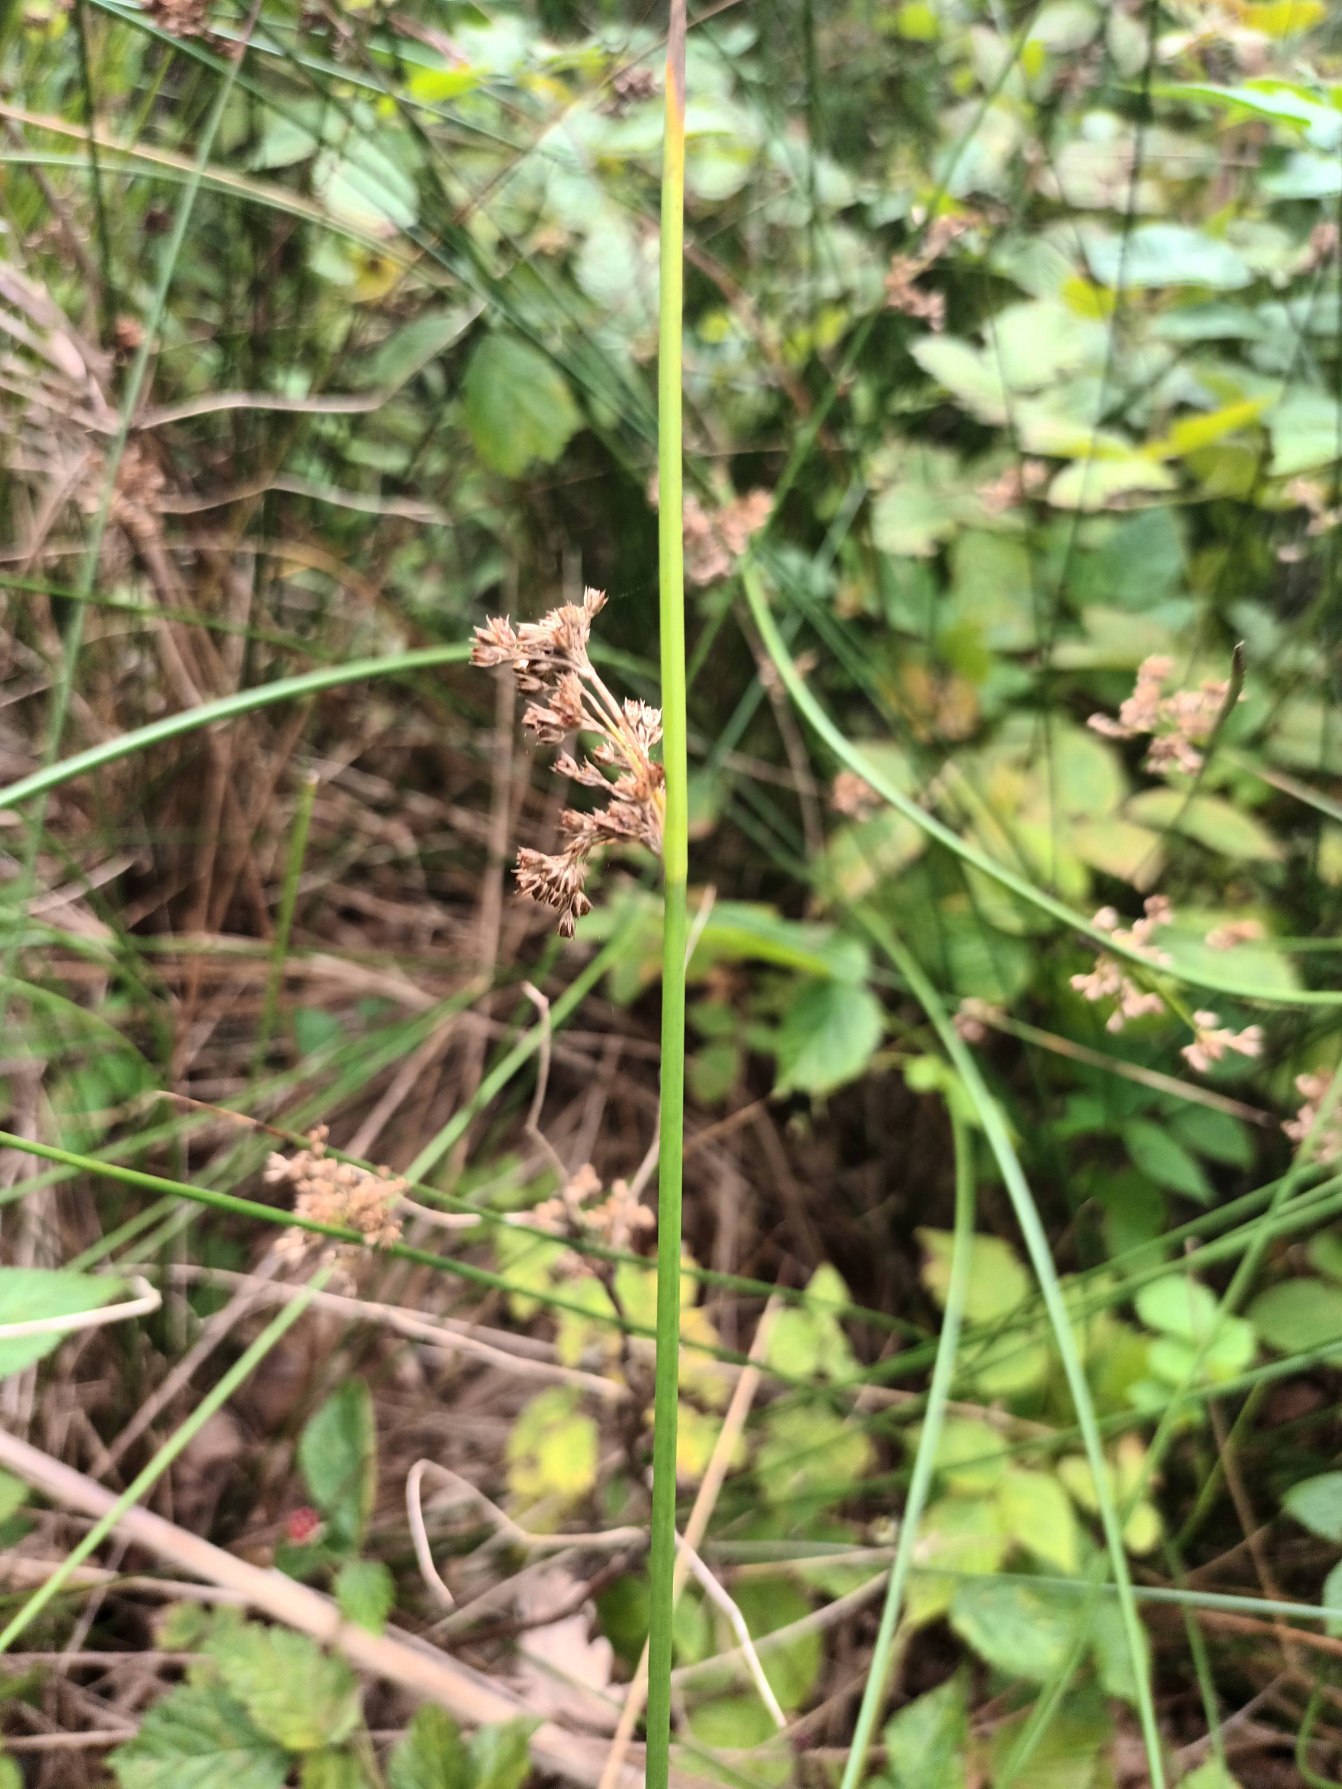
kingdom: Plantae
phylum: Tracheophyta
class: Liliopsida
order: Poales
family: Juncaceae
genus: Juncus
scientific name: Juncus effusus
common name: Lyse-siv
